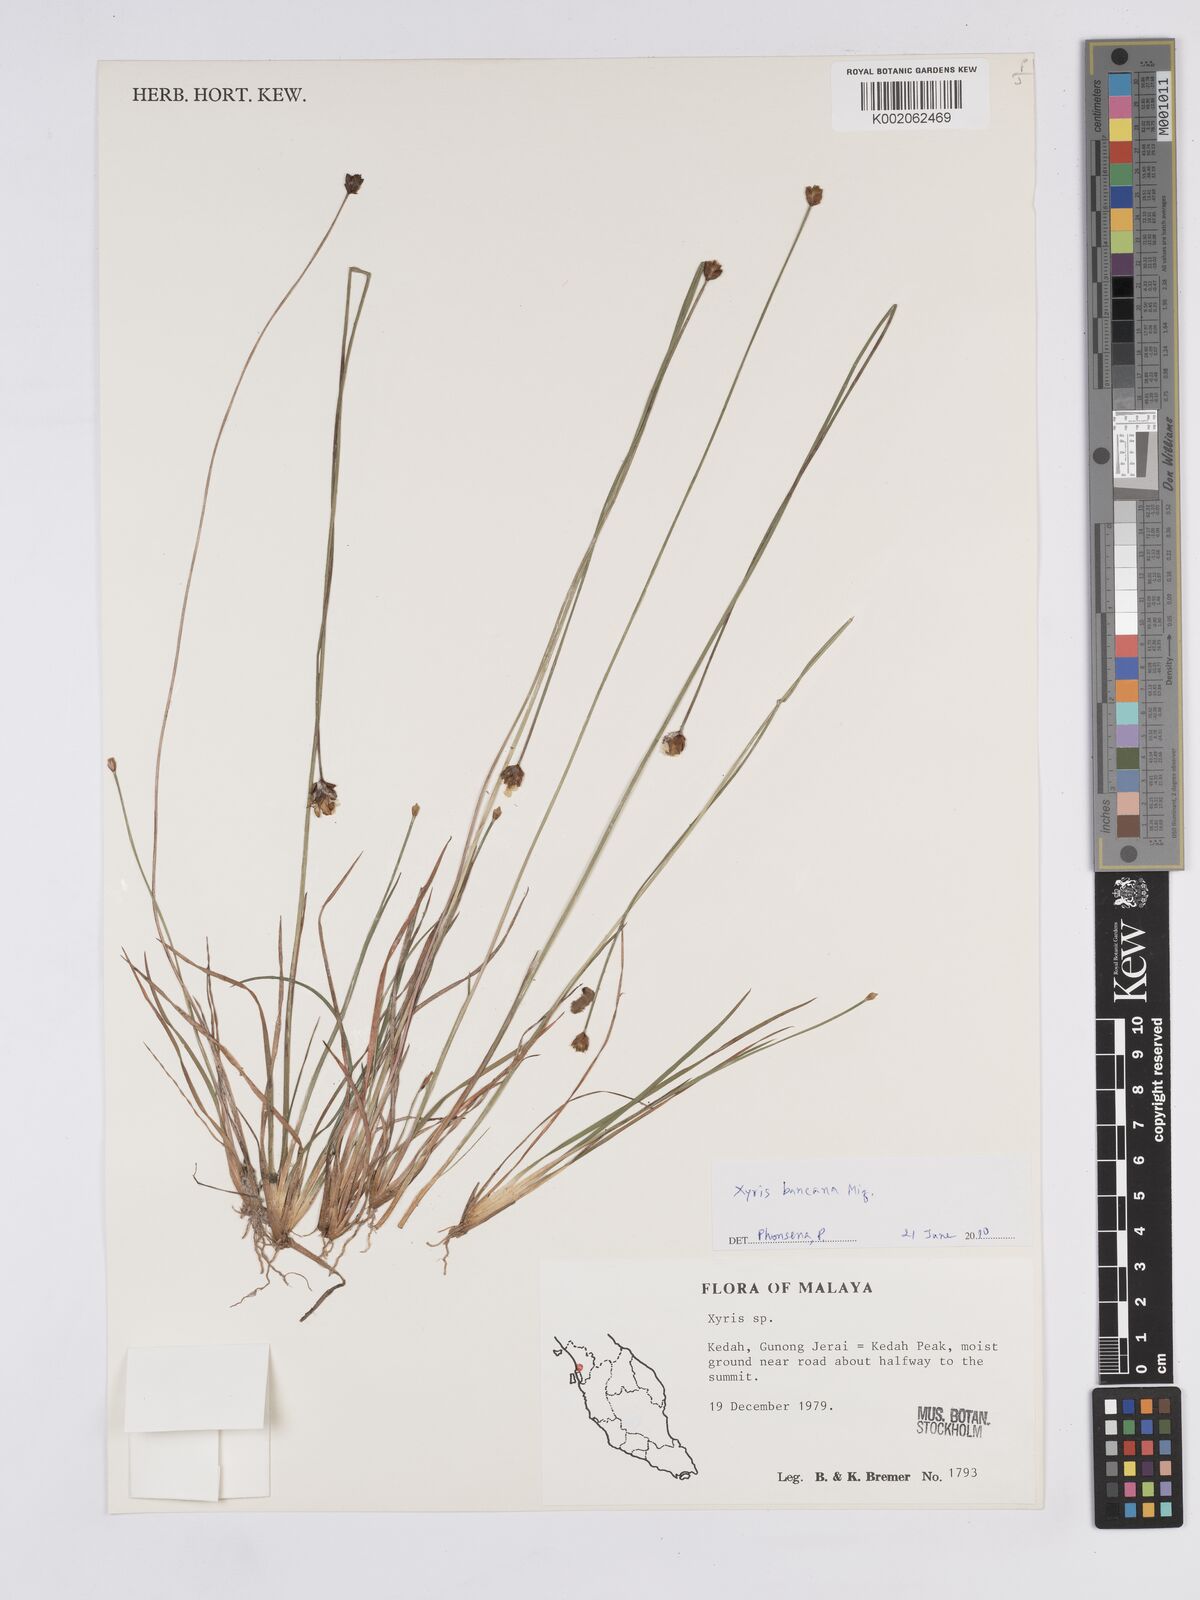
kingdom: Plantae
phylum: Tracheophyta
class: Liliopsida
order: Poales
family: Xyridaceae
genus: Xyris
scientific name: Xyris
